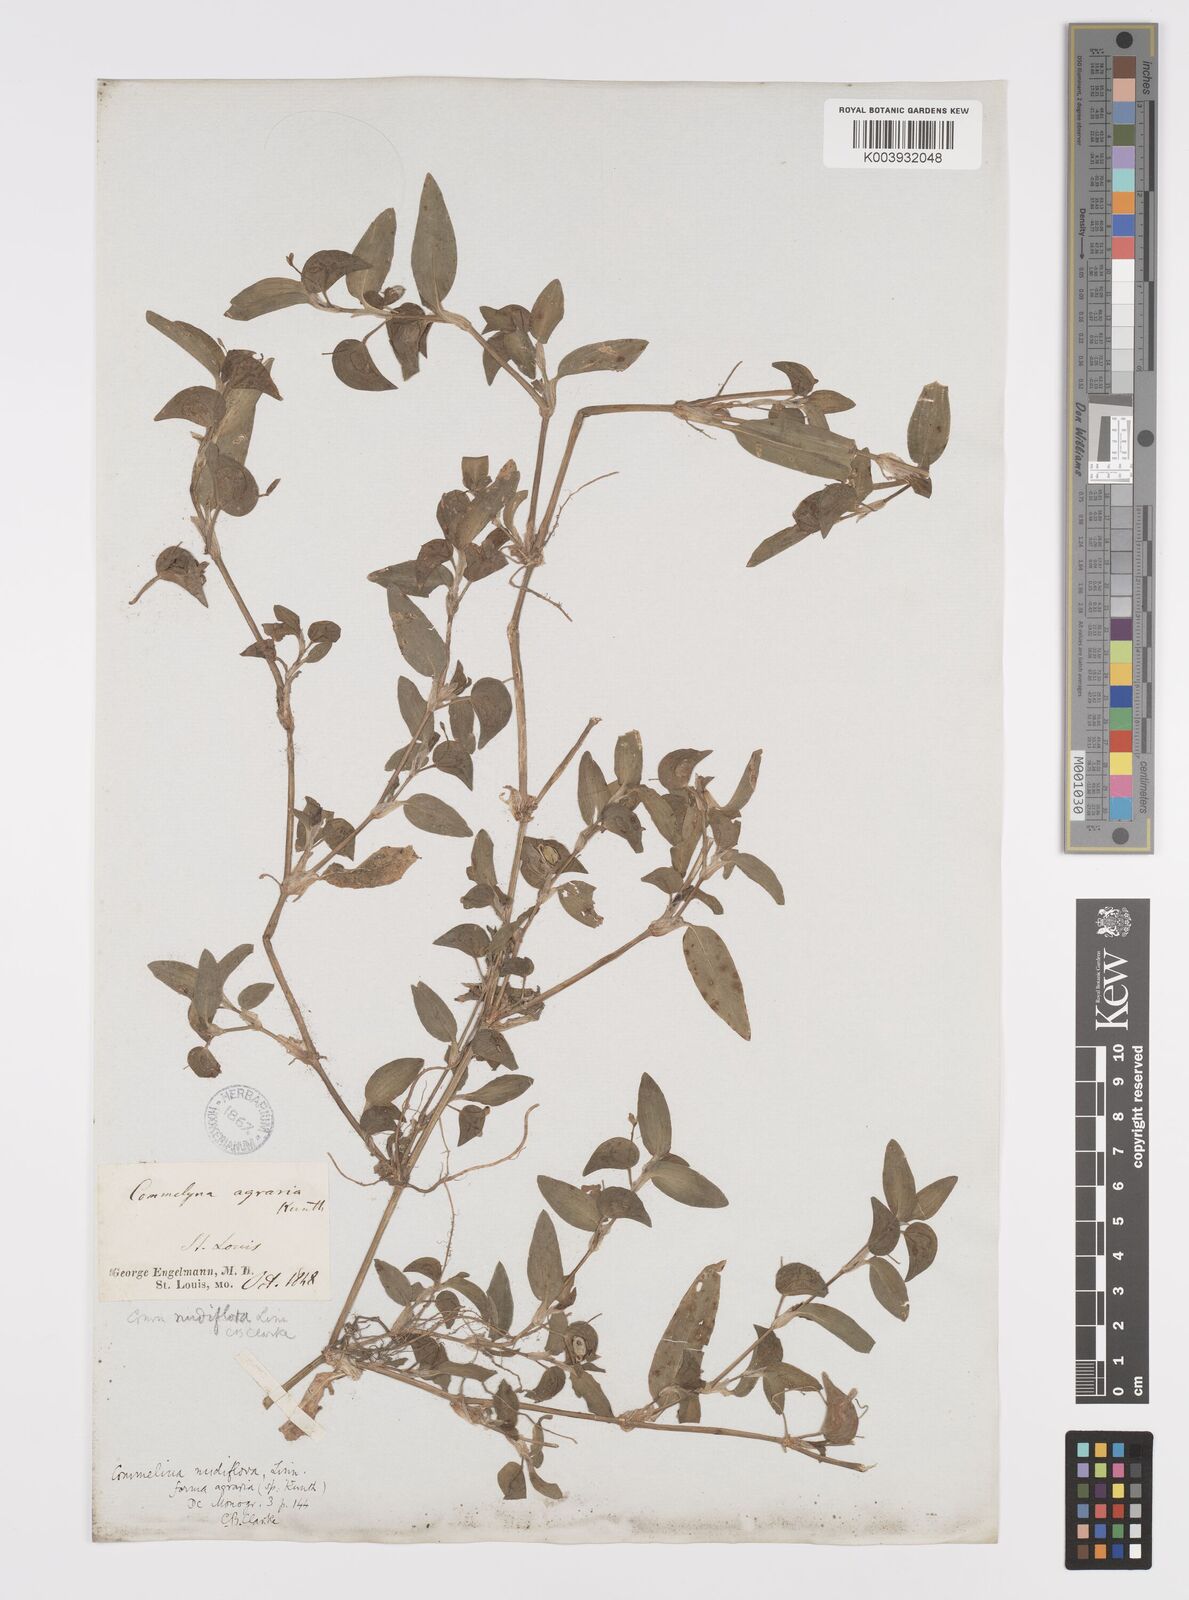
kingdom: Plantae
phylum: Tracheophyta
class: Liliopsida
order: Commelinales
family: Commelinaceae
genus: Murdannia
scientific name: Murdannia nudiflora
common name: Nakedstem dewflower
